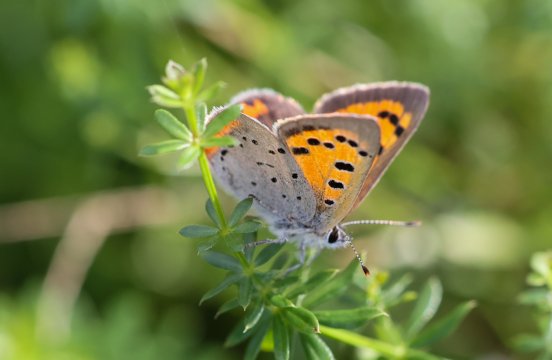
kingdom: Animalia
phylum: Arthropoda
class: Insecta
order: Lepidoptera
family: Lycaenidae
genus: Lycaena
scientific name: Lycaena phlaeas
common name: American Copper
